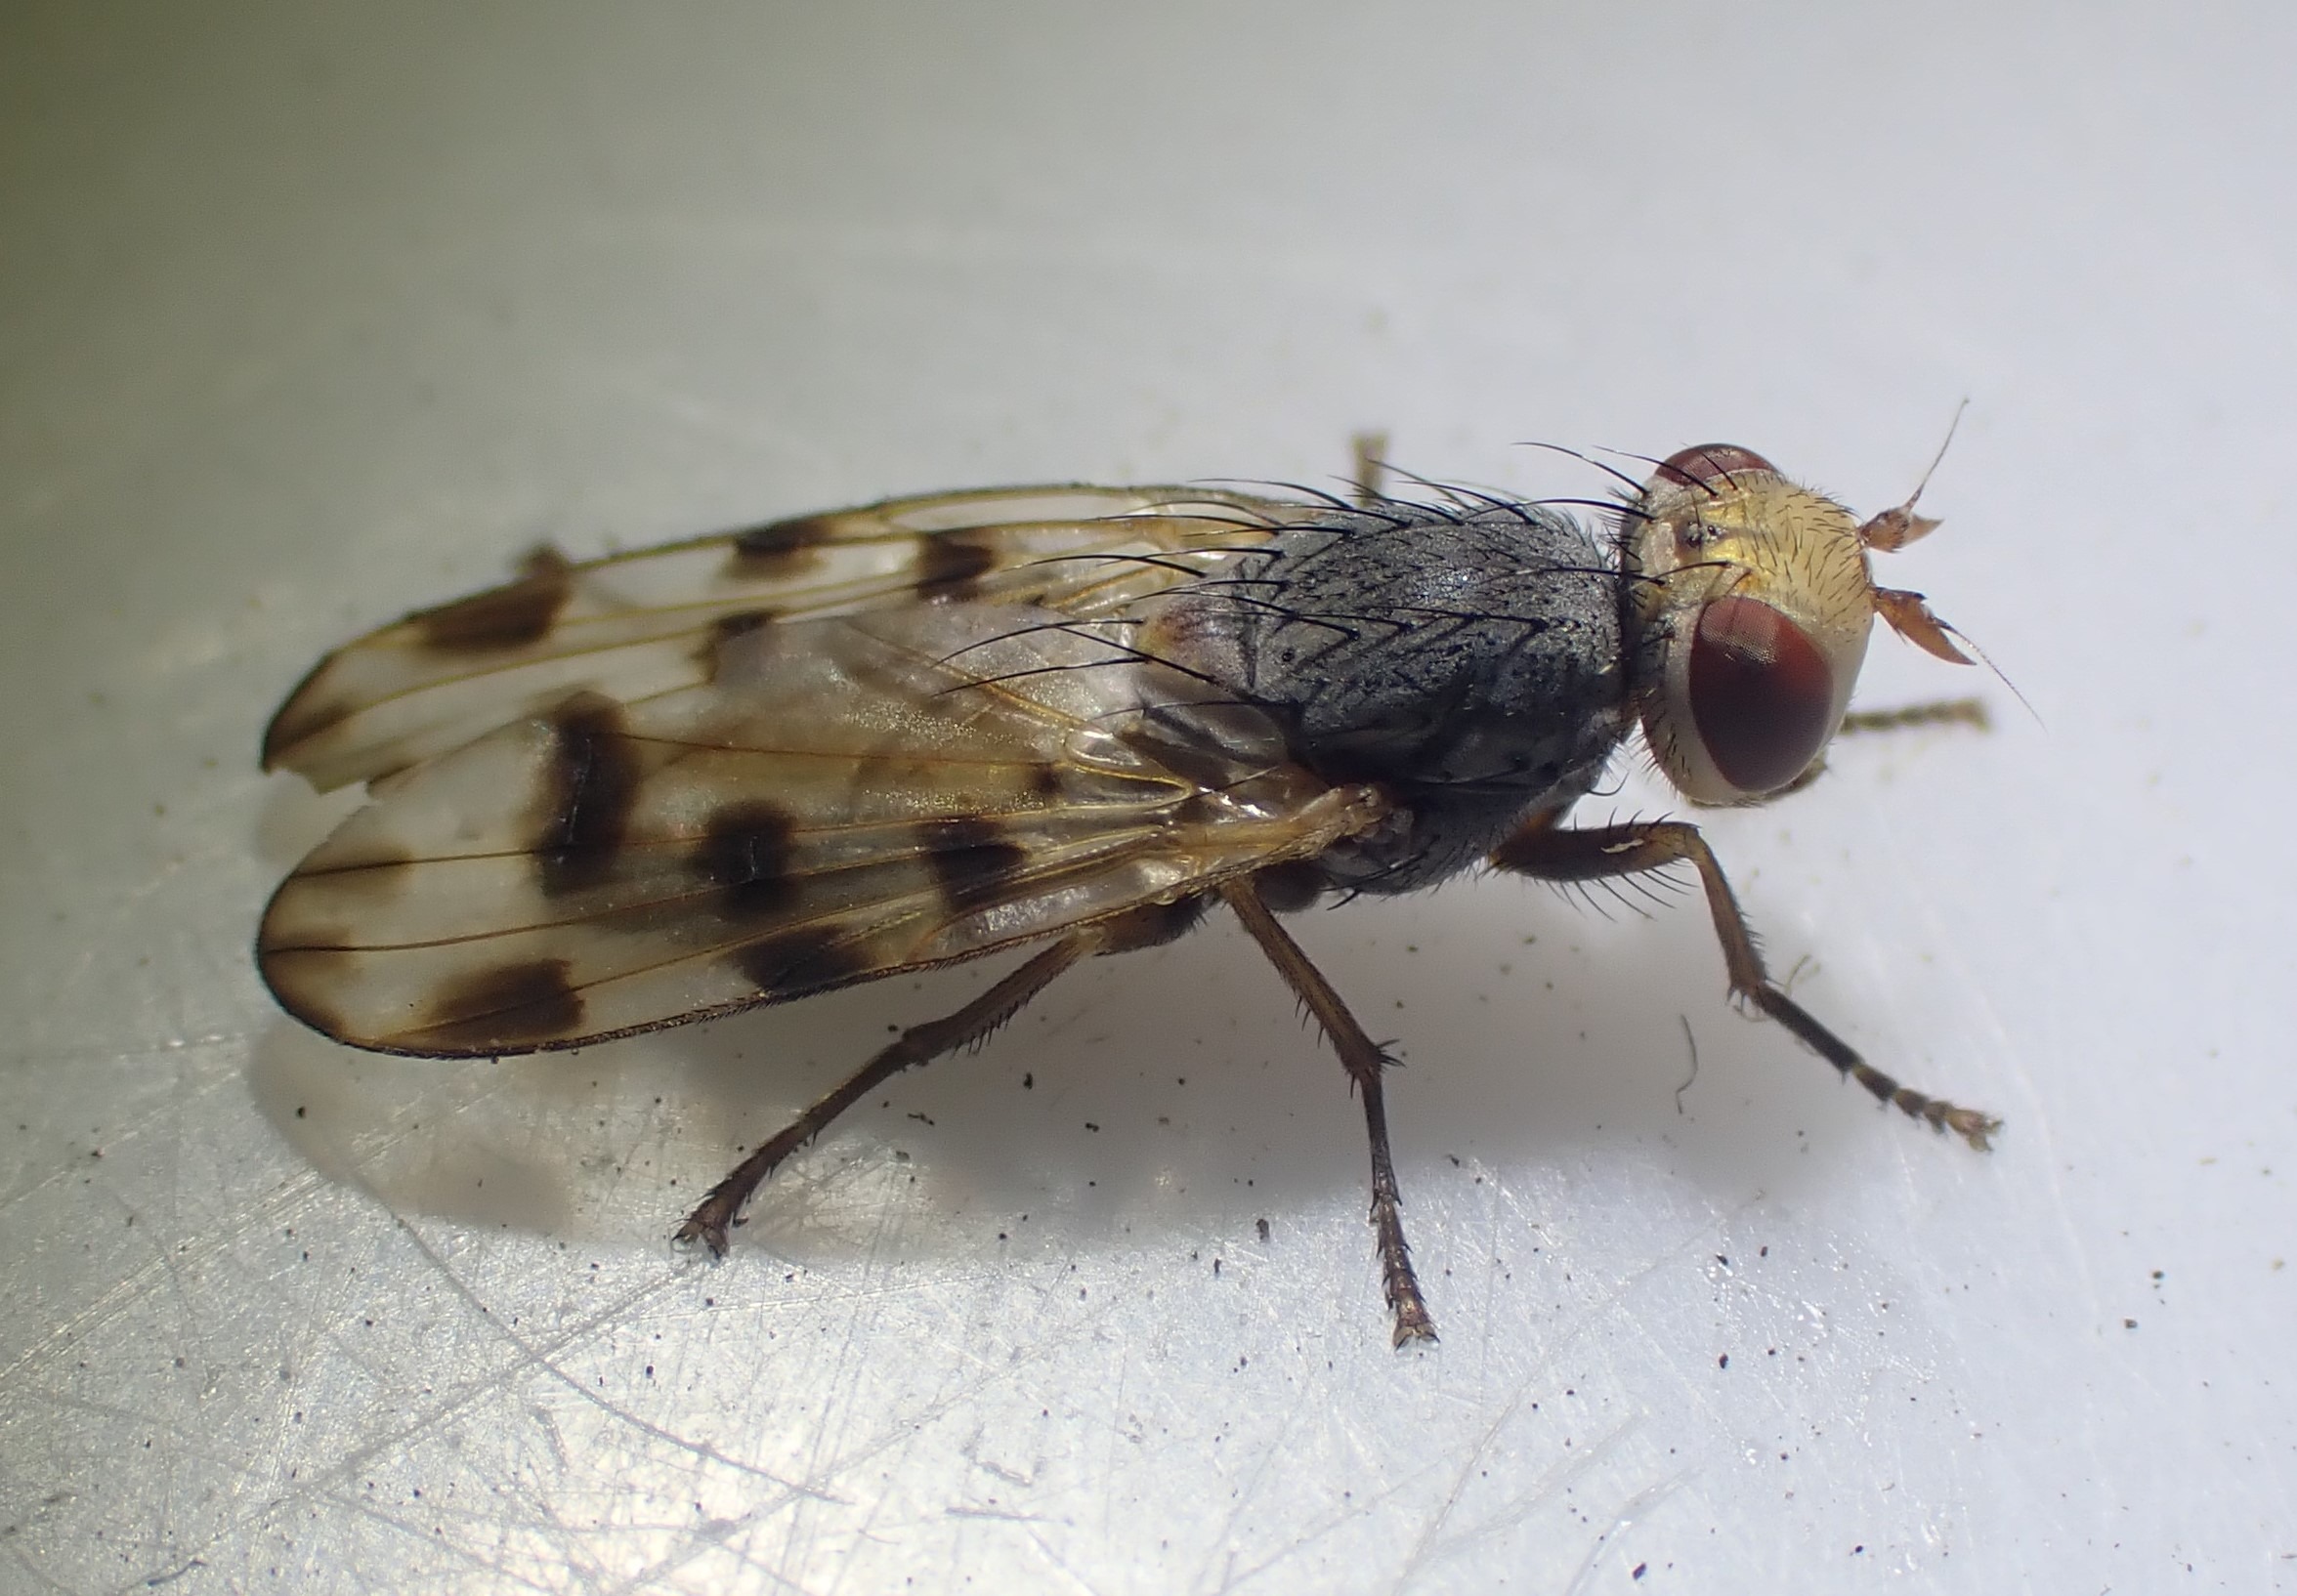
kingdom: Animalia
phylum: Arthropoda
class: Insecta
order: Diptera
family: Ulidiidae
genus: Melieria
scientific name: Melieria omissa
